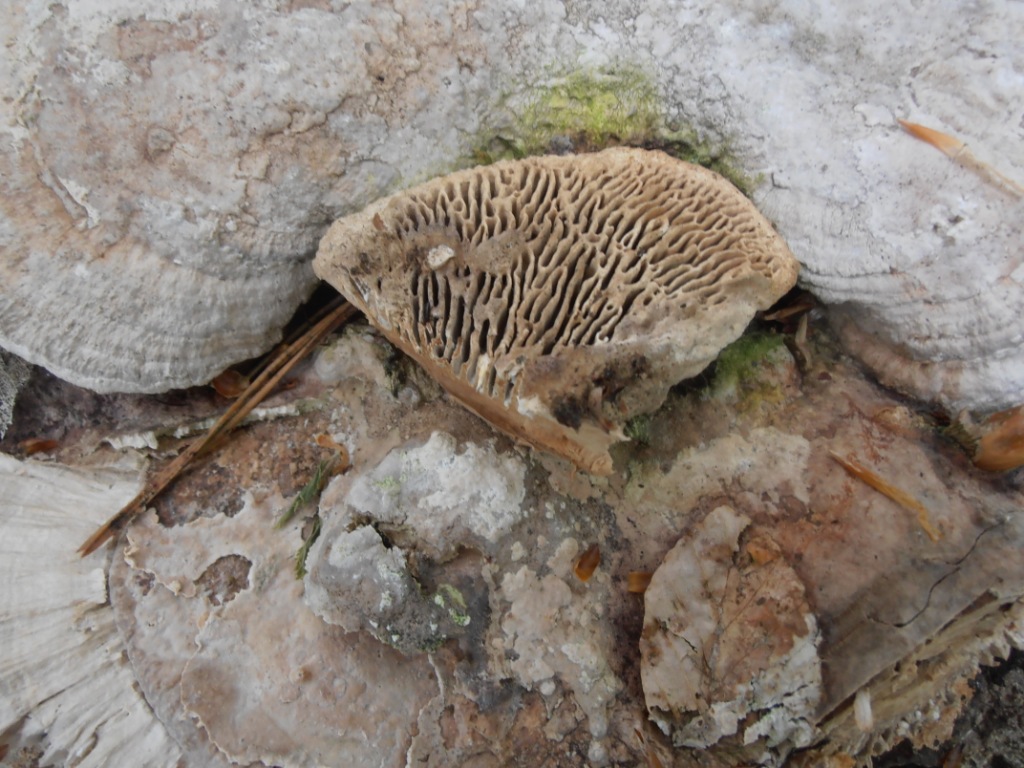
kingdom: Fungi
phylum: Basidiomycota
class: Agaricomycetes
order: Polyporales
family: Fomitopsidaceae
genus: Daedalea
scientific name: Daedalea quercina
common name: ege-labyrintsvamp
